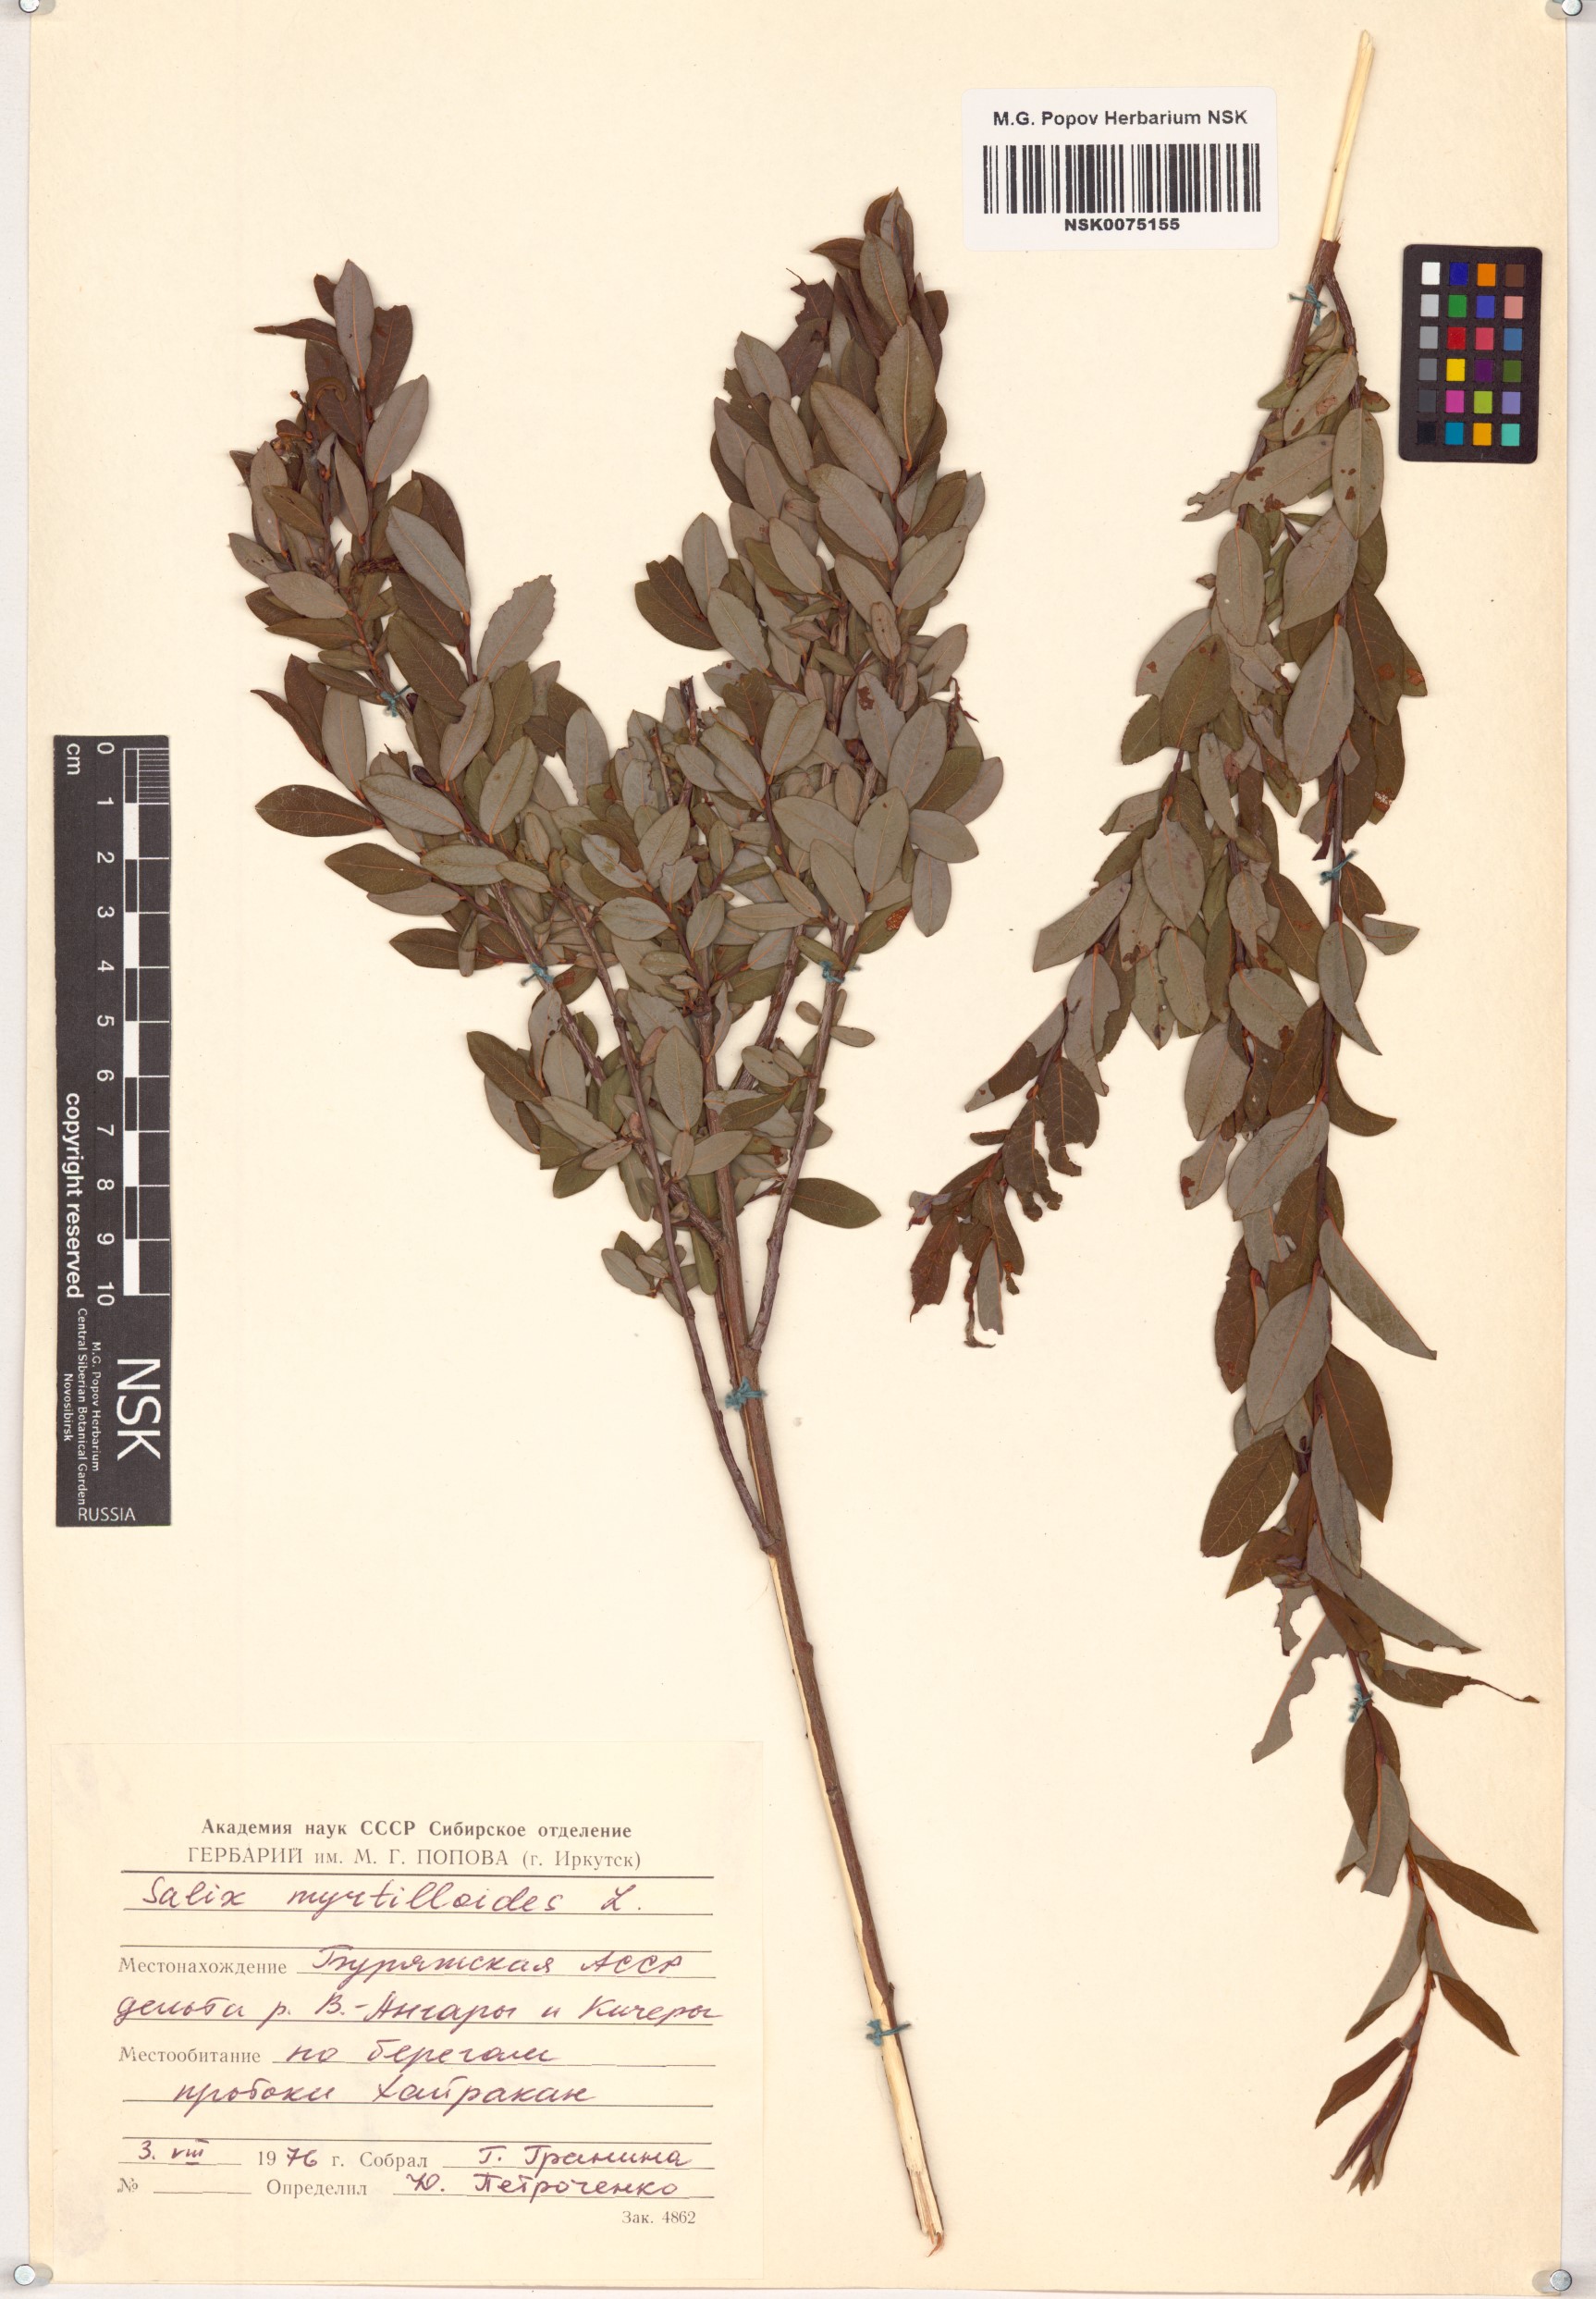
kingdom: Plantae
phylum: Tracheophyta
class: Magnoliopsida
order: Malpighiales
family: Salicaceae
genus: Salix
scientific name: Salix myrtilloides
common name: Myrtle-leaved willow
